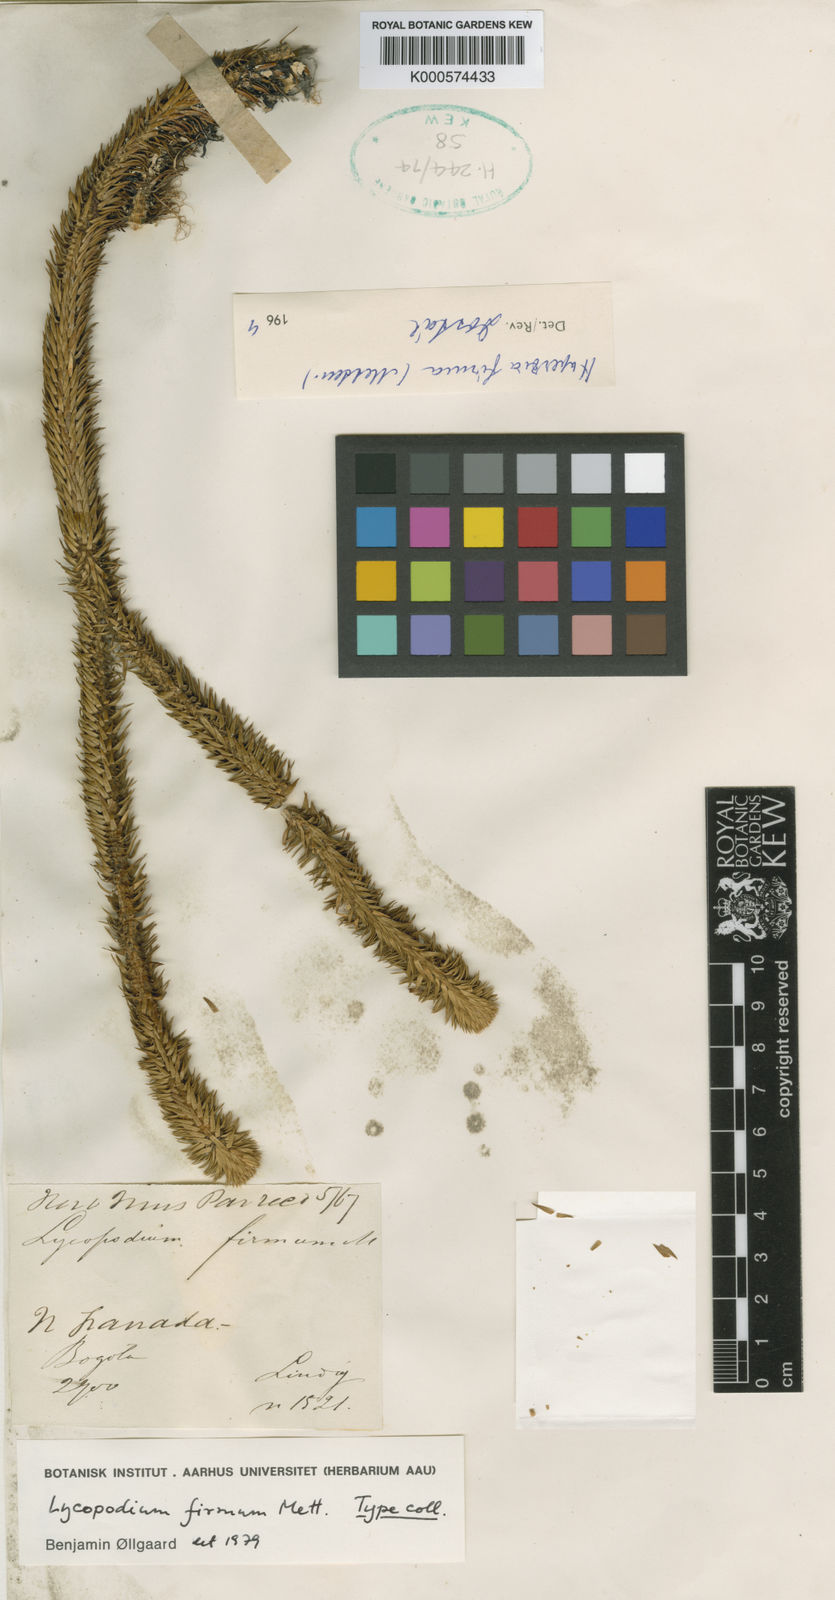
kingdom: Plantae
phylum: Tracheophyta
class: Lycopodiopsida
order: Lycopodiales
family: Lycopodiaceae
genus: Phlegmariurus
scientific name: Phlegmariurus firmus
